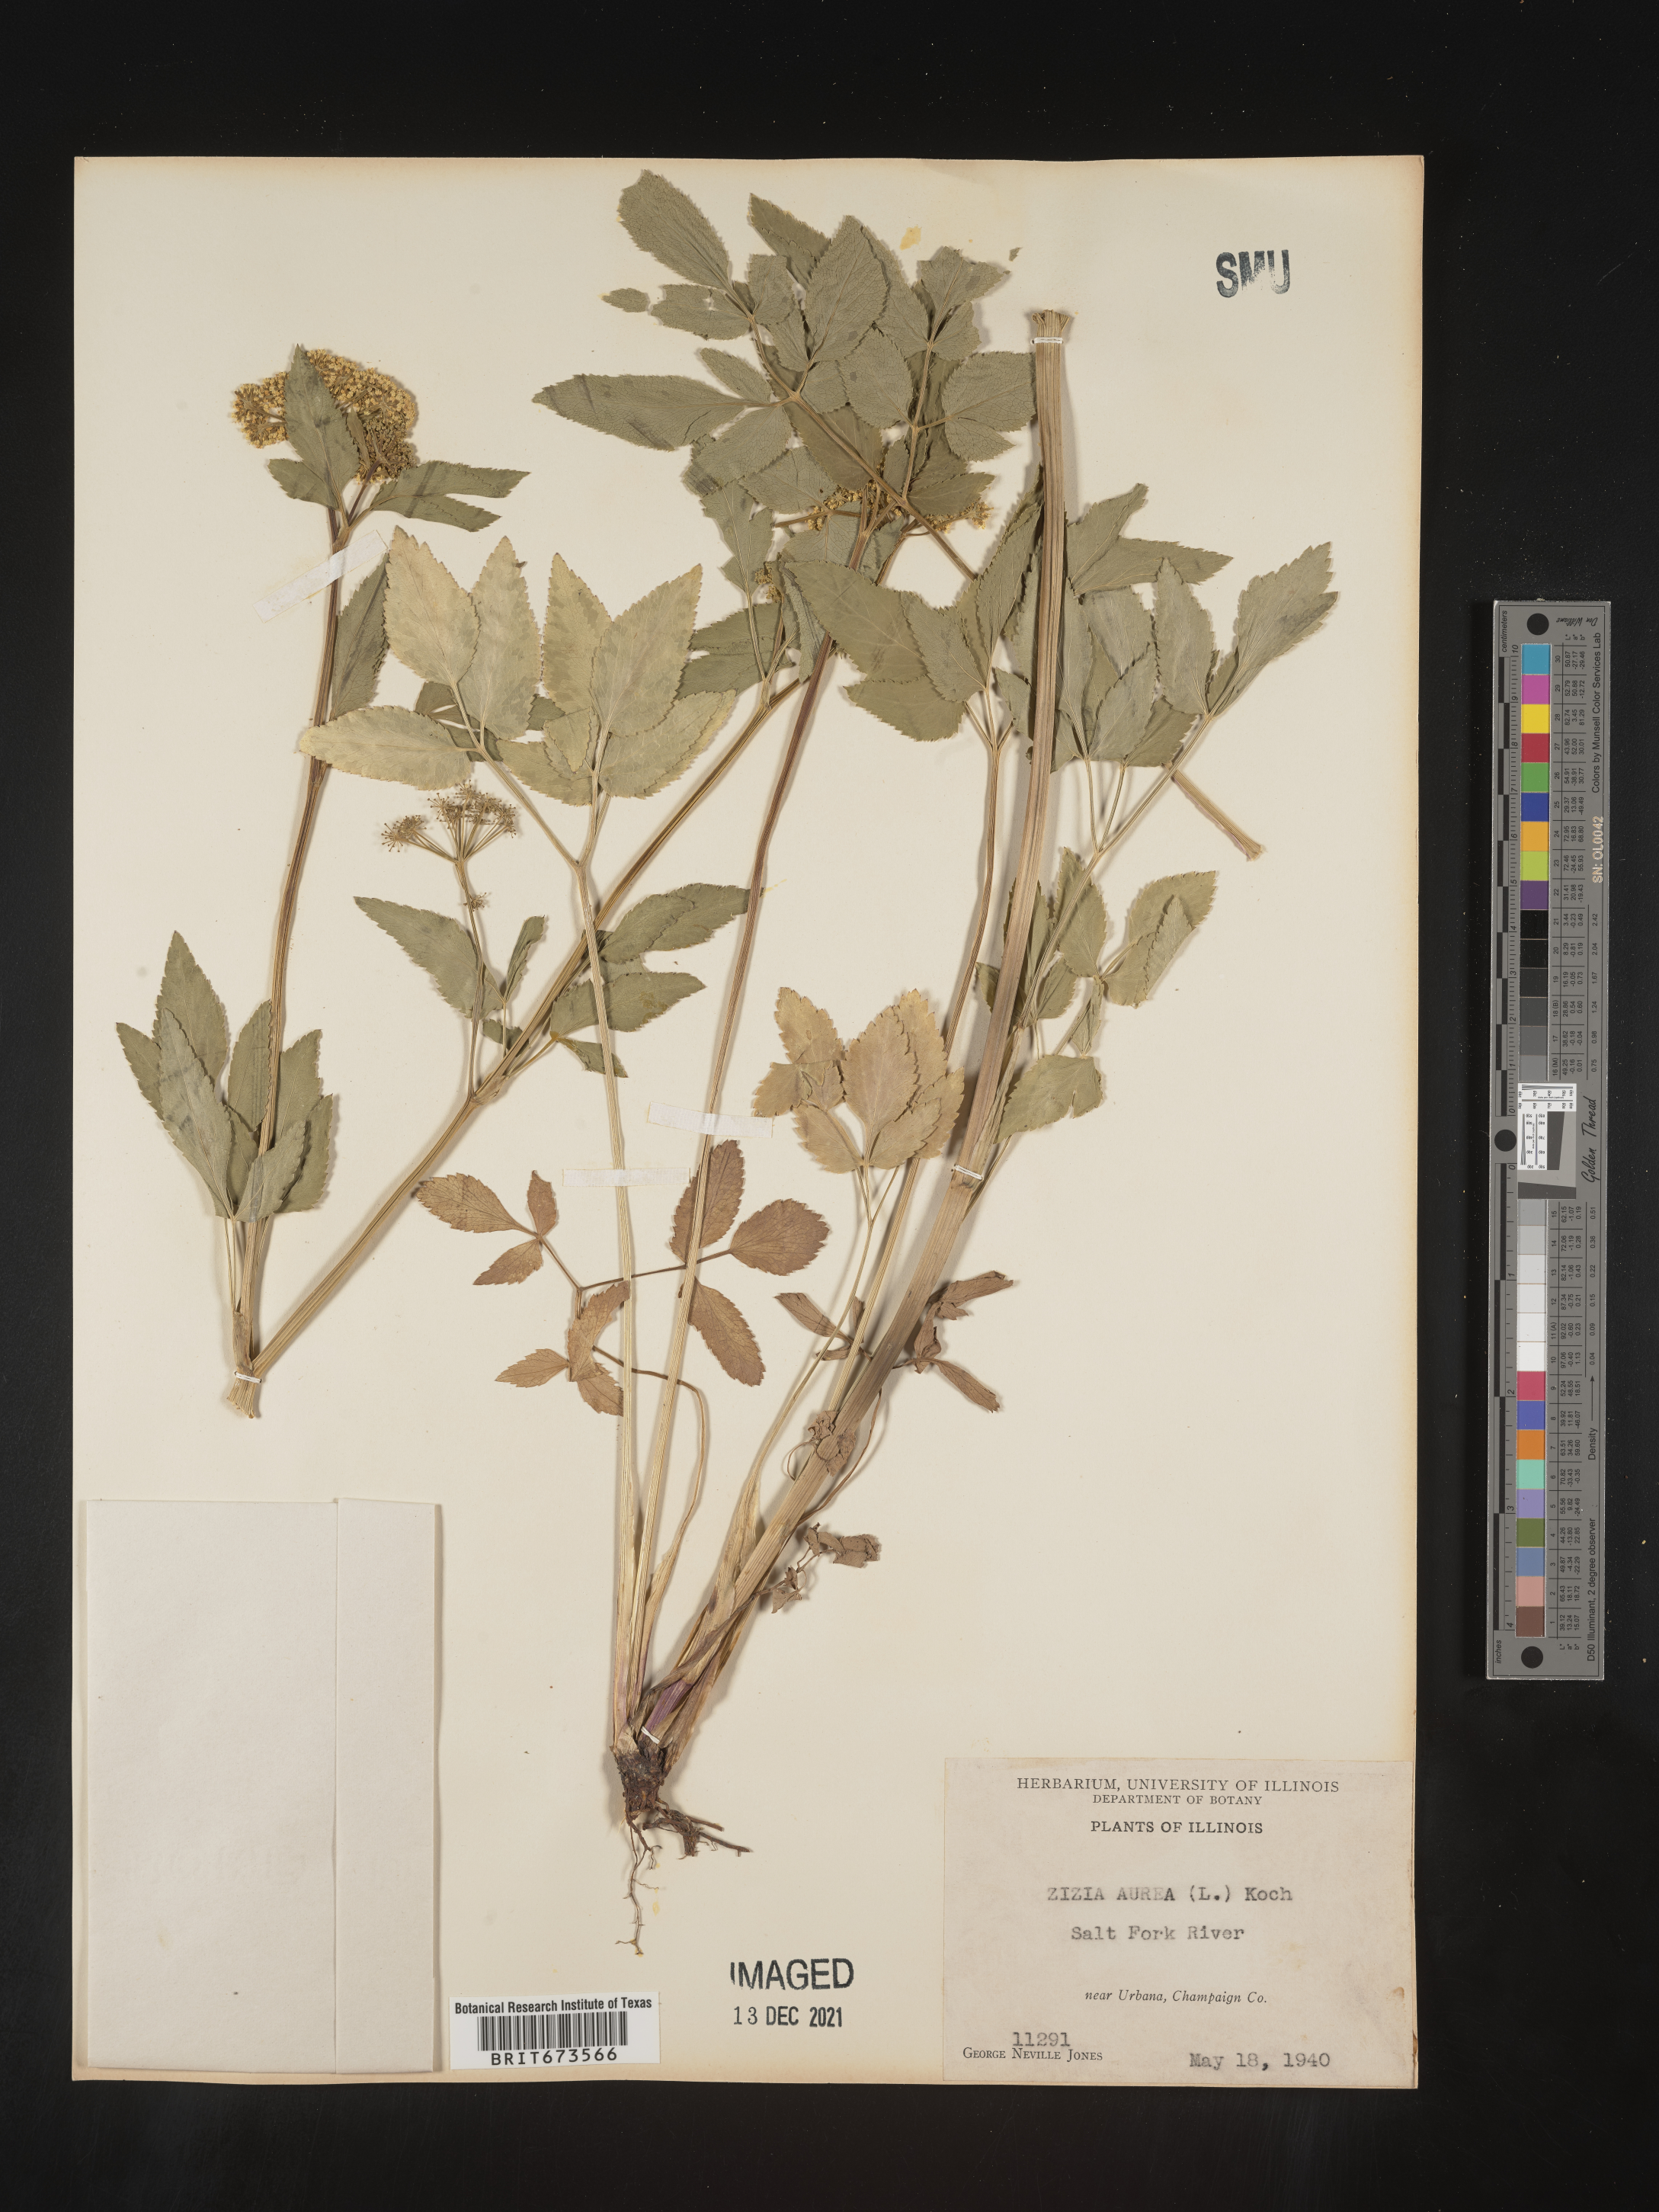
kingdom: Plantae
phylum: Tracheophyta
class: Magnoliopsida
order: Apiales
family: Apiaceae
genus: Zizia
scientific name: Zizia aurea
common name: Golden alexanders
